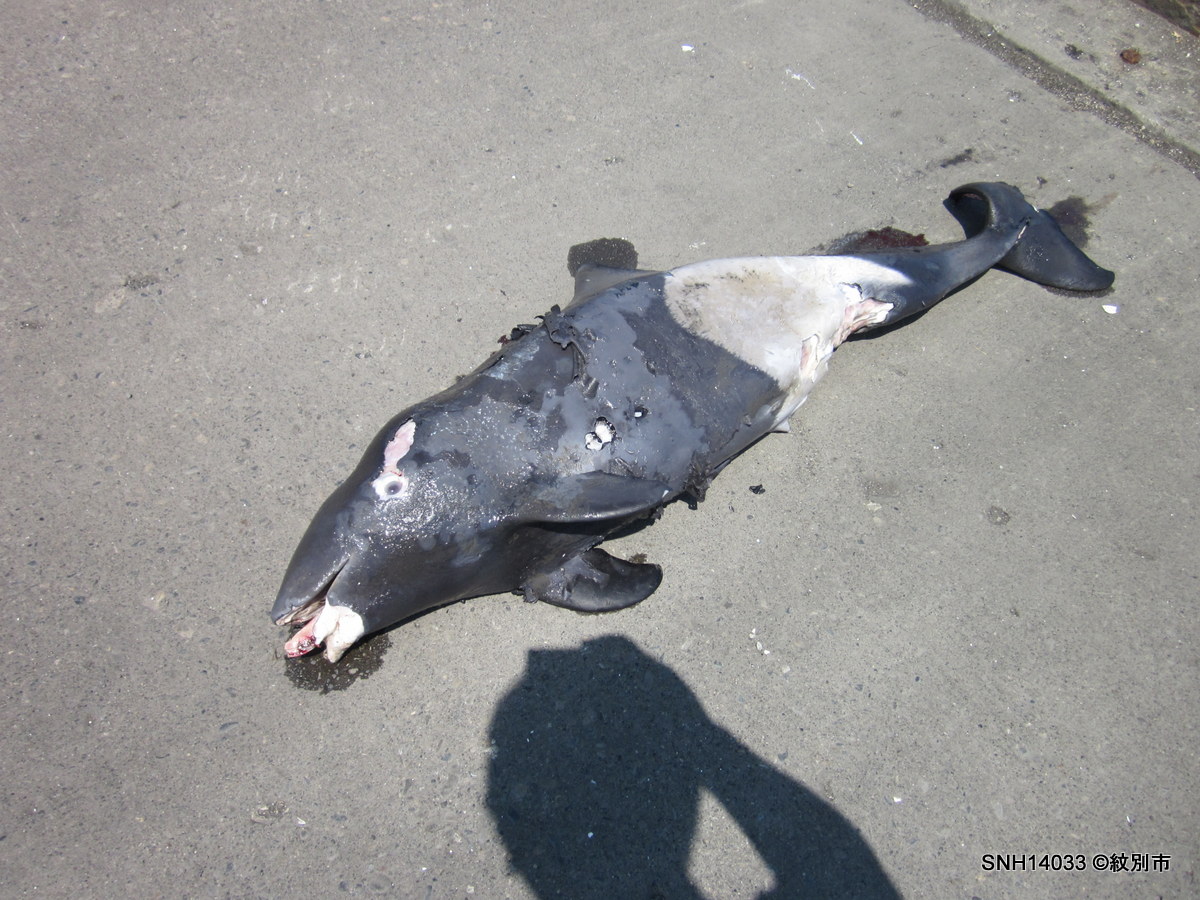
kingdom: Animalia
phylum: Chordata
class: Mammalia
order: Cetacea
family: Phocoenidae
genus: Phocoenoides
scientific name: Phocoenoides dalli
